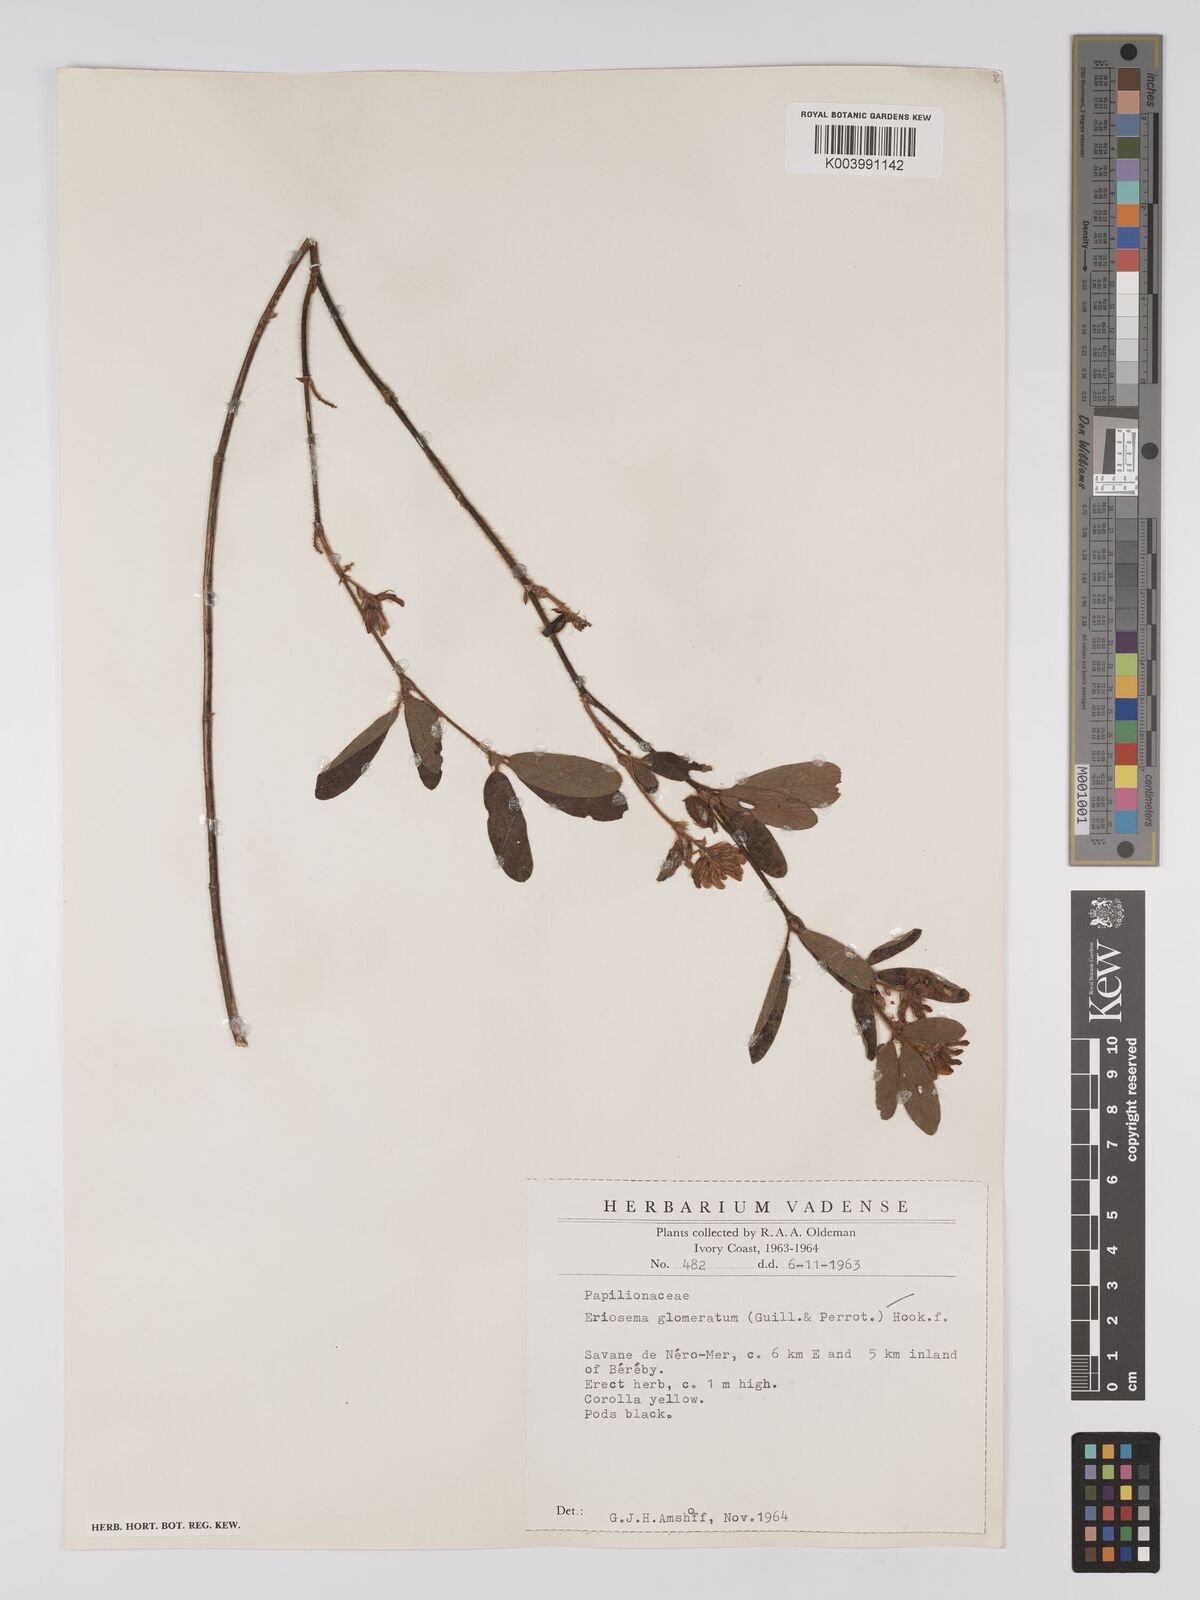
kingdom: Plantae
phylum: Tracheophyta
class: Magnoliopsida
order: Fabales
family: Fabaceae
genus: Eriosema
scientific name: Eriosema glomeratum
